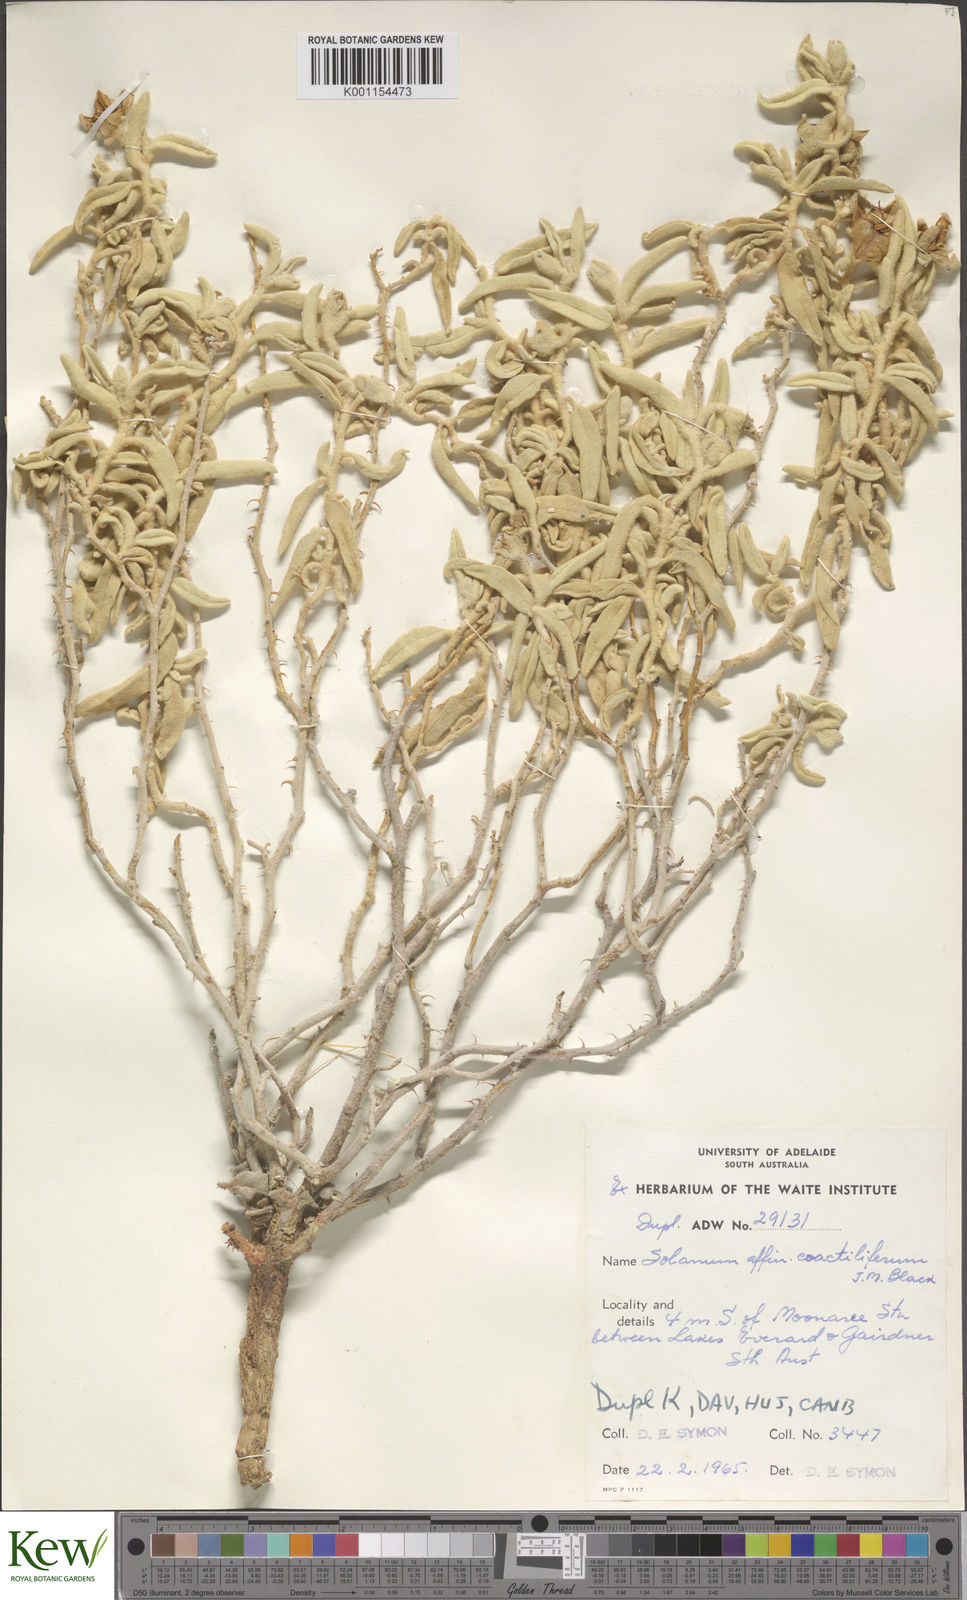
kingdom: Plantae
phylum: Tracheophyta
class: Magnoliopsida
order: Solanales
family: Solanaceae
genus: Solanum
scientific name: Solanum coactiliferum
